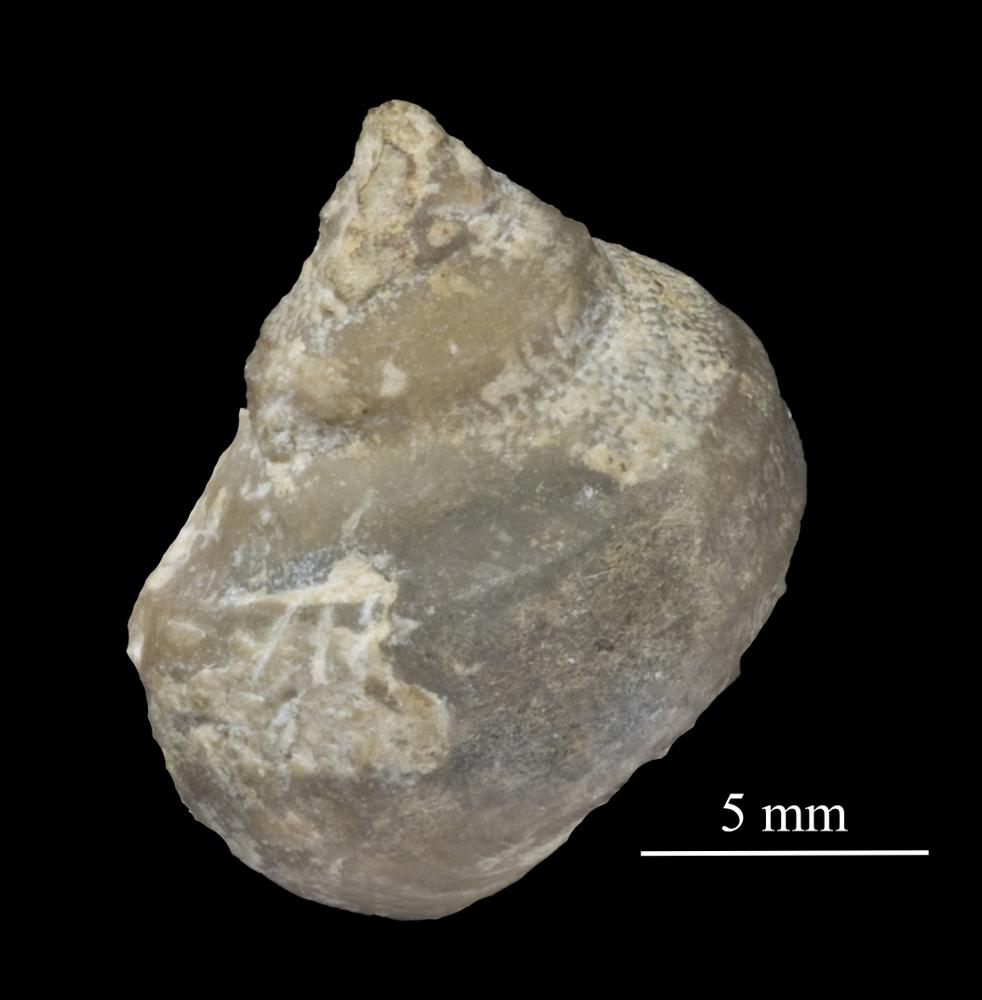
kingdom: Animalia
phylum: Mollusca
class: Gastropoda
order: Pleurotomariida
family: Phanerotrematidae
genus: Brachytomaria
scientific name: Brachytomaria nodulosa
